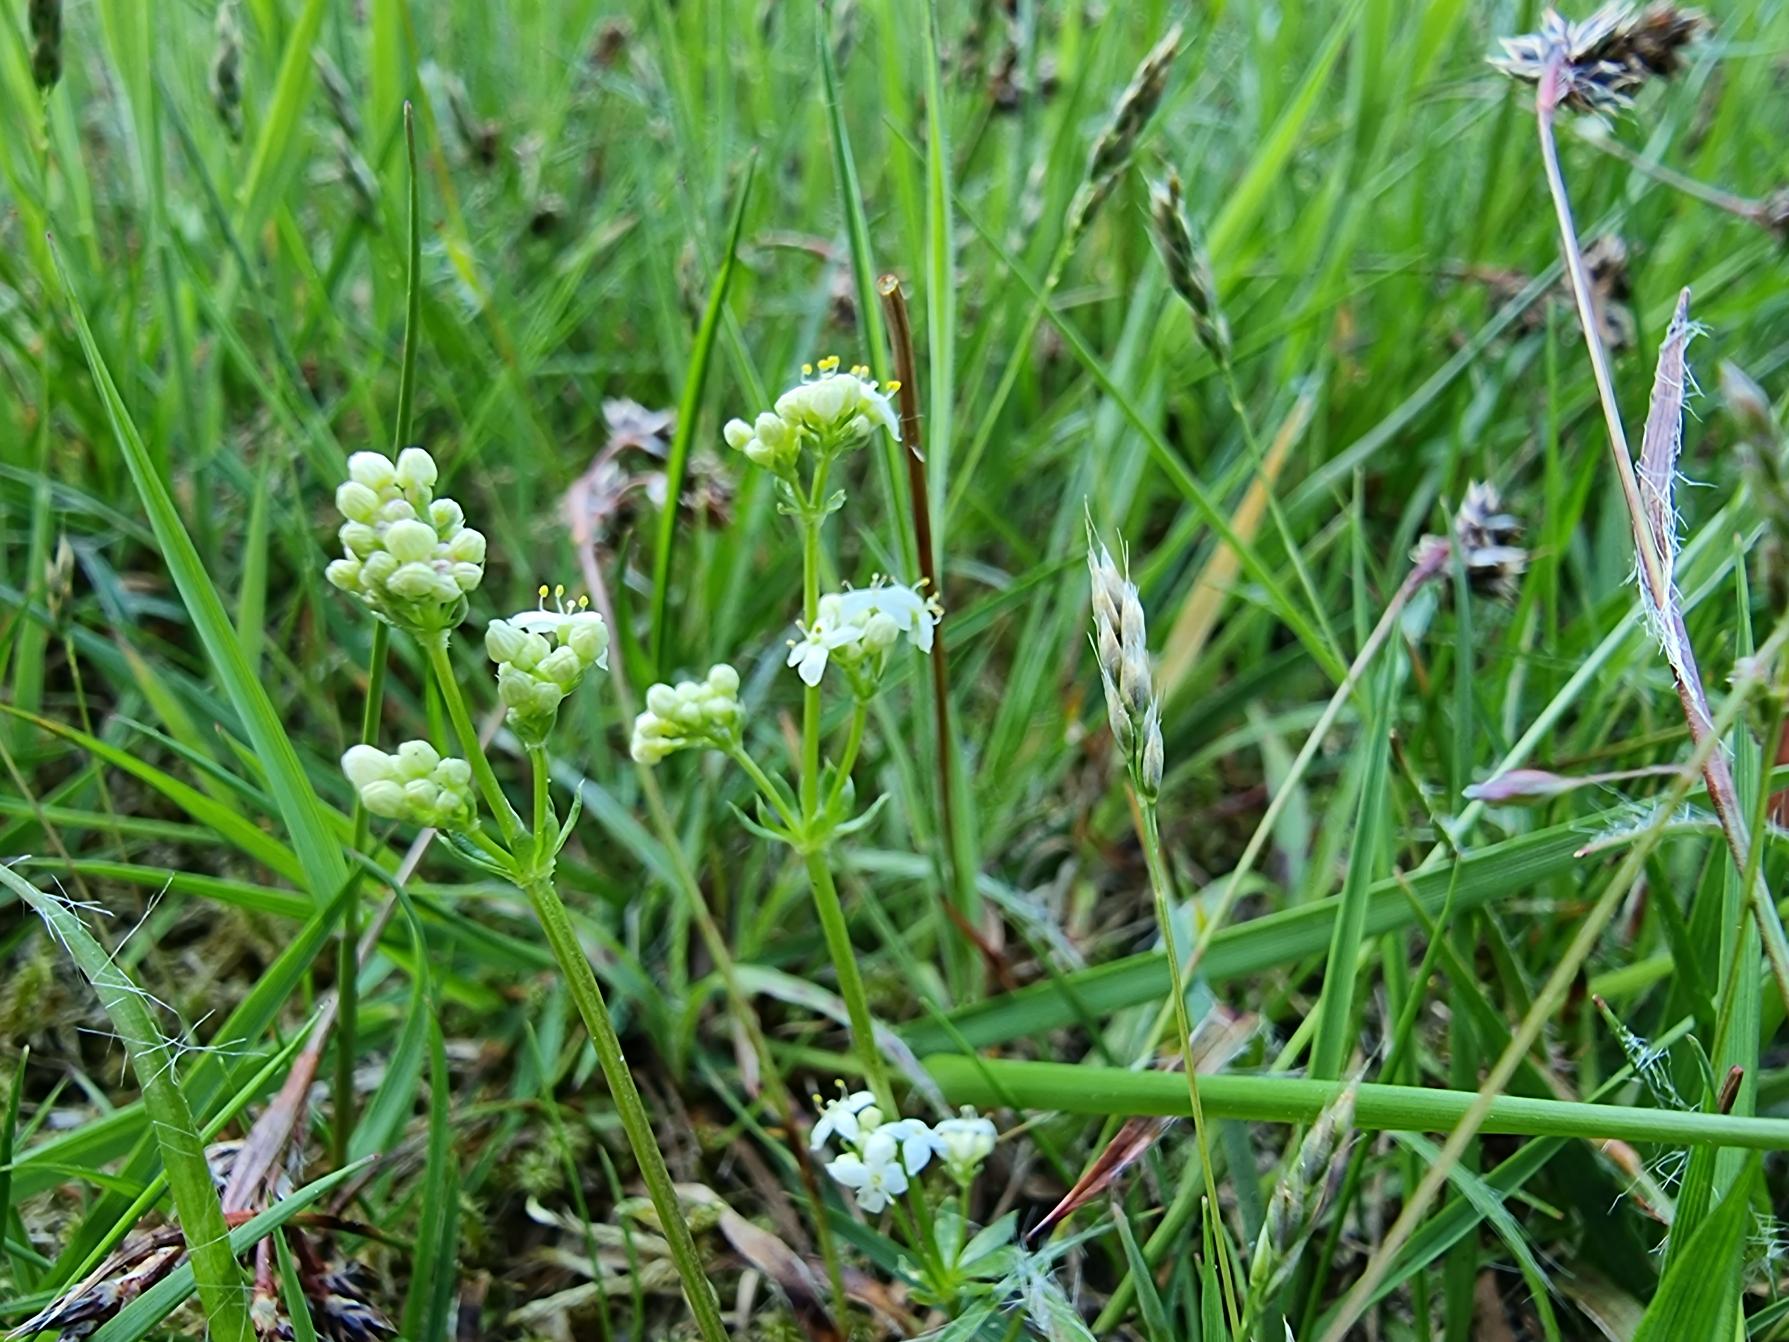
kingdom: Plantae
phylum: Tracheophyta
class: Magnoliopsida
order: Gentianales
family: Rubiaceae
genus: Galium
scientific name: Galium saxatile
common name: Lyng-snerre
